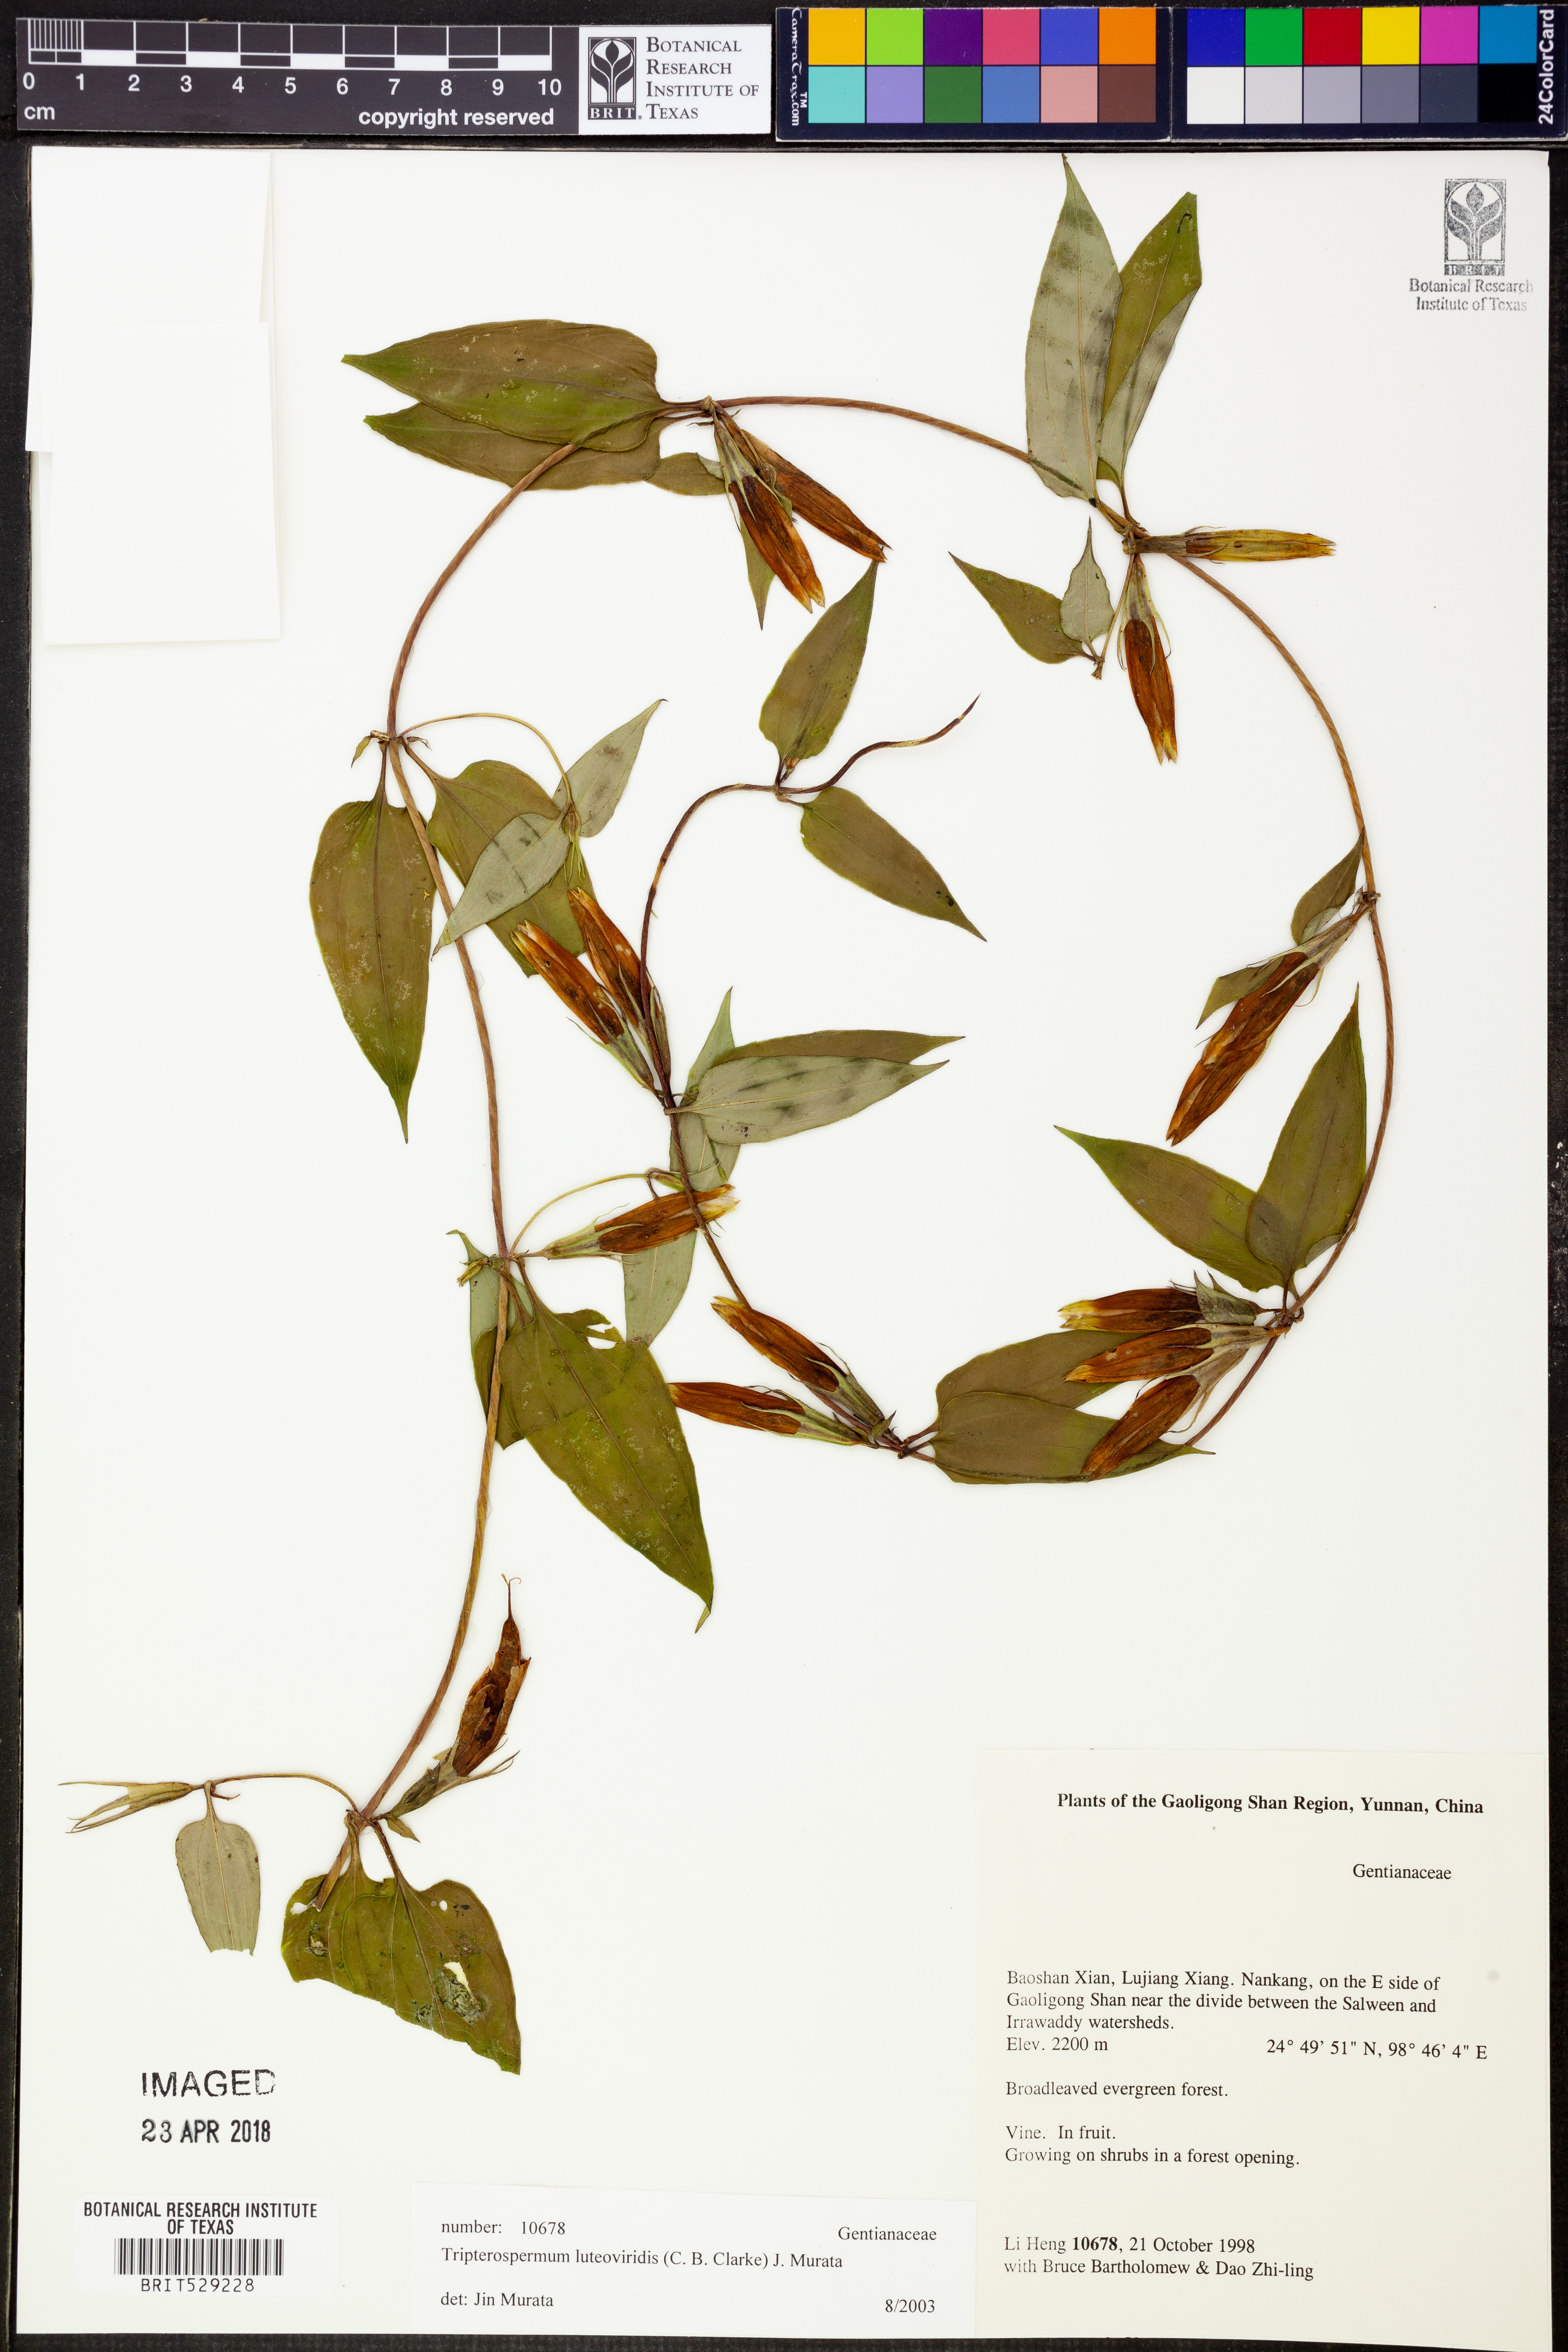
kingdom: Plantae
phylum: Tracheophyta
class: Magnoliopsida
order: Gentianales
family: Gentianaceae
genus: Tripterospermum
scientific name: Tripterospermum volubile
